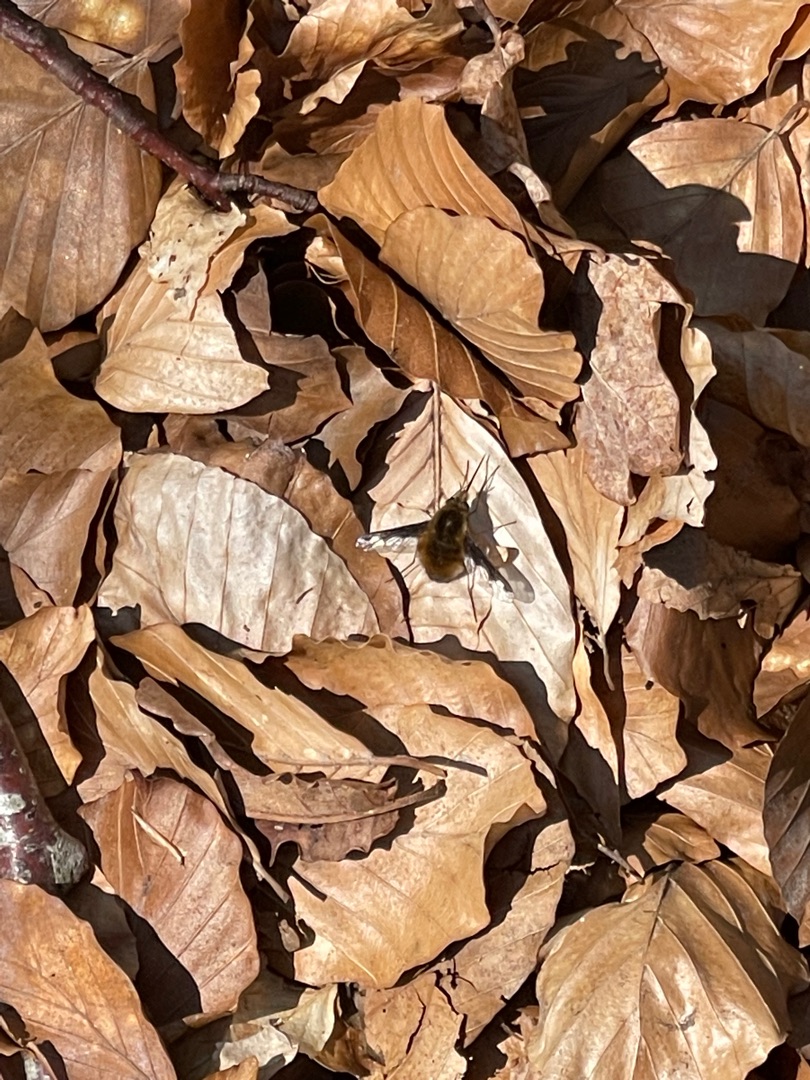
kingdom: Animalia
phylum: Arthropoda
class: Insecta
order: Diptera
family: Bombyliidae
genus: Bombylius
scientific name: Bombylius major
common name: Stor humleflue
